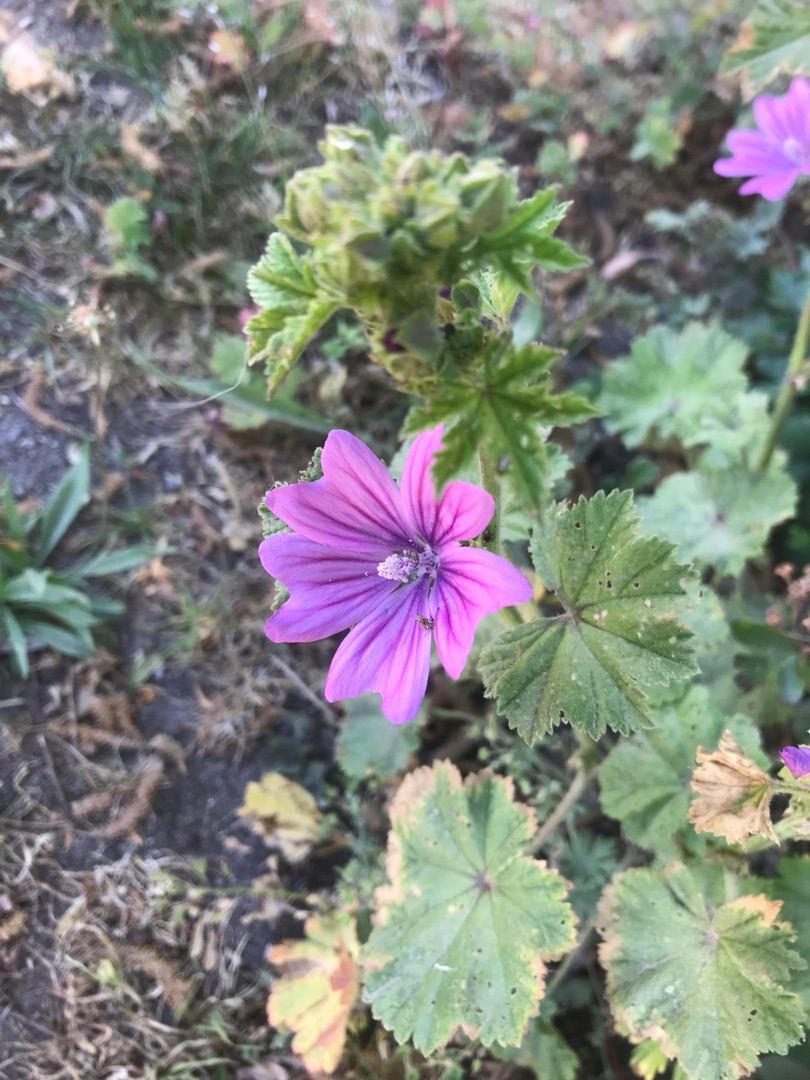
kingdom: Plantae
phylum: Tracheophyta
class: Magnoliopsida
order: Malvales
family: Malvaceae
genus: Malva
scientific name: Malva sylvestris
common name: Almindelig katost
